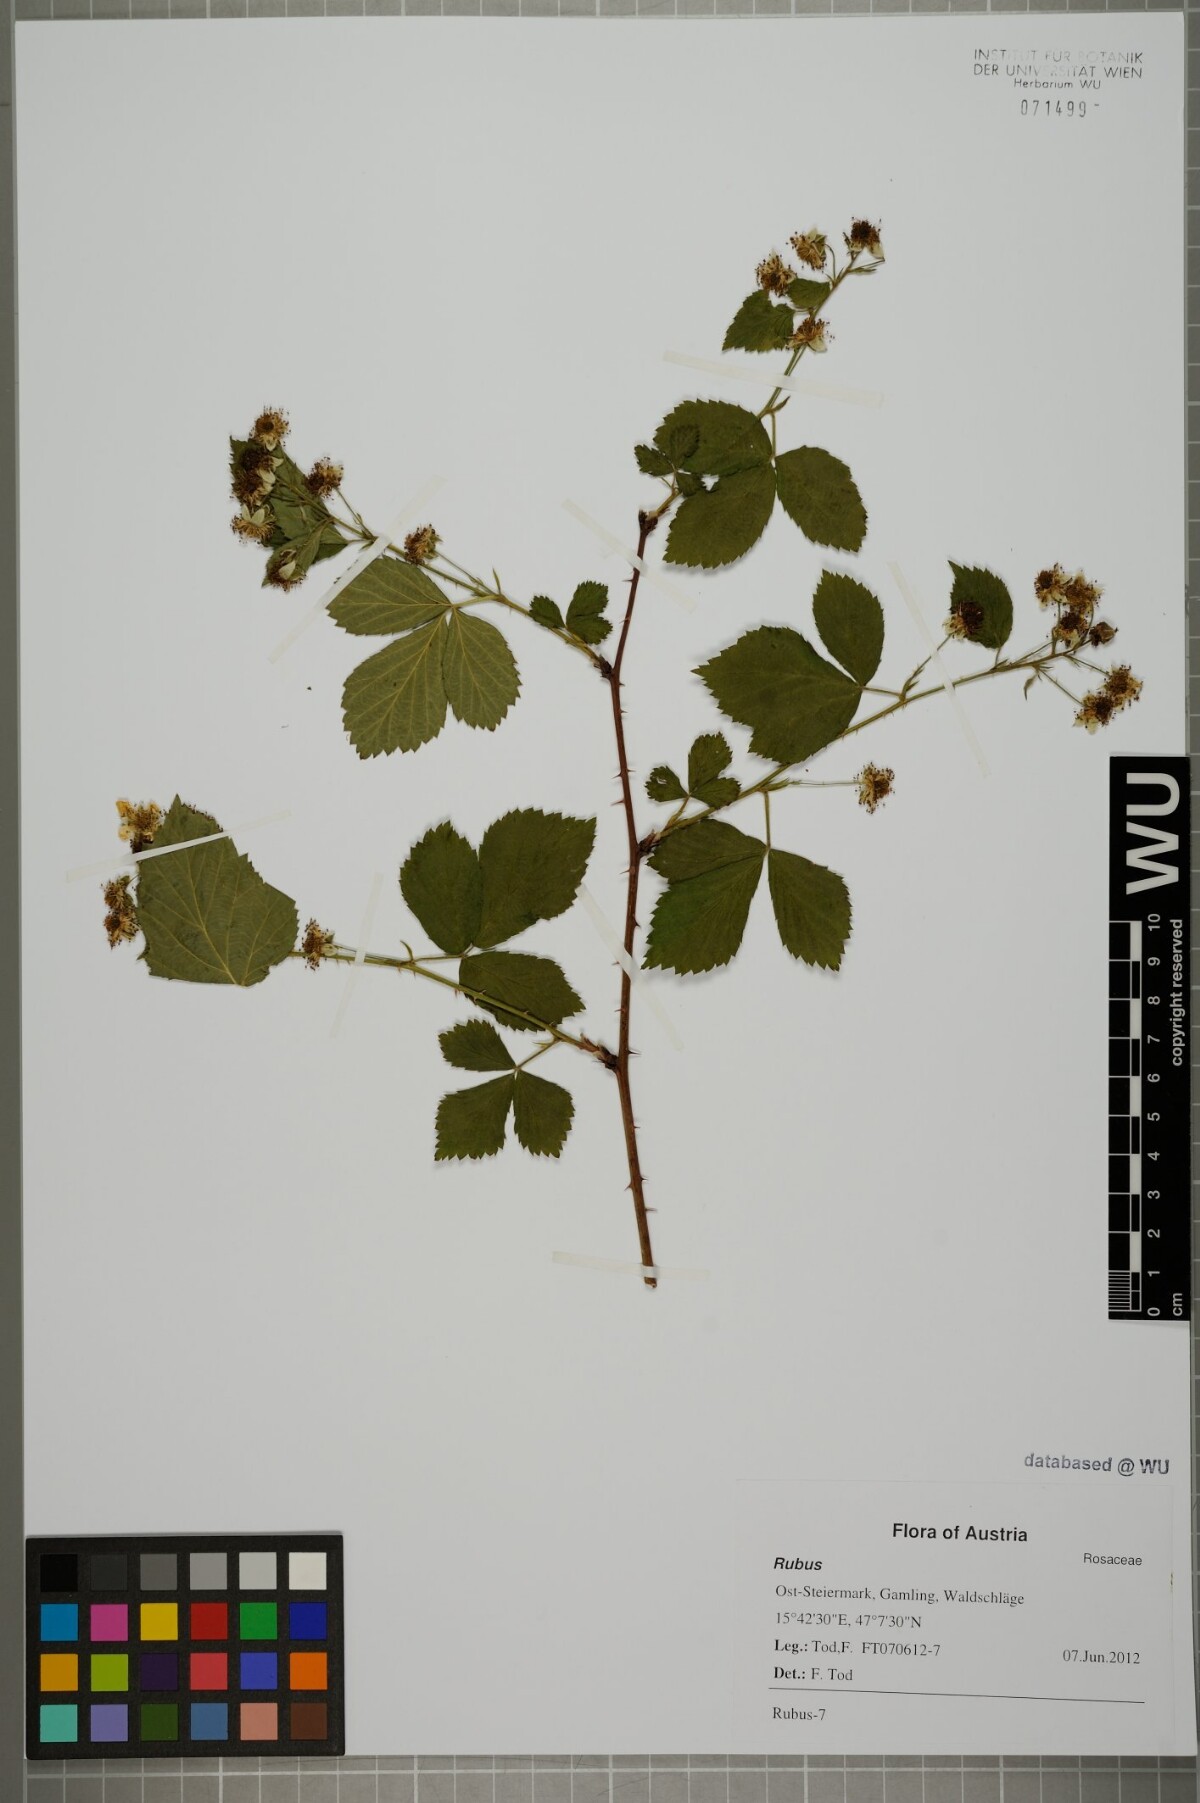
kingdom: Plantae
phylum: Tracheophyta
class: Magnoliopsida
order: Rosales
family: Rosaceae
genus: Rubus
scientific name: Rubus
